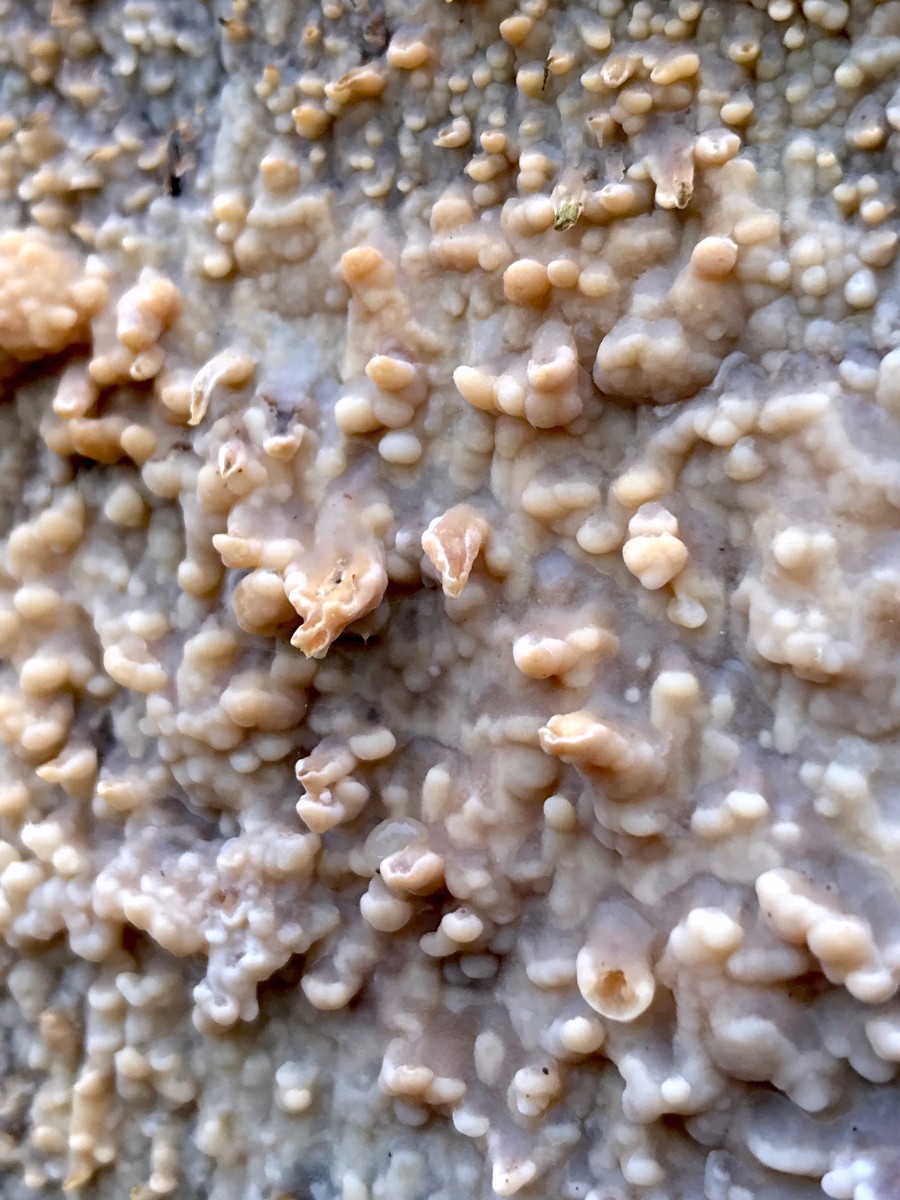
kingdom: Fungi
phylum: Basidiomycota
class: Agaricomycetes
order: Corticiales
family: Corticiaceae
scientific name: Corticiaceae
